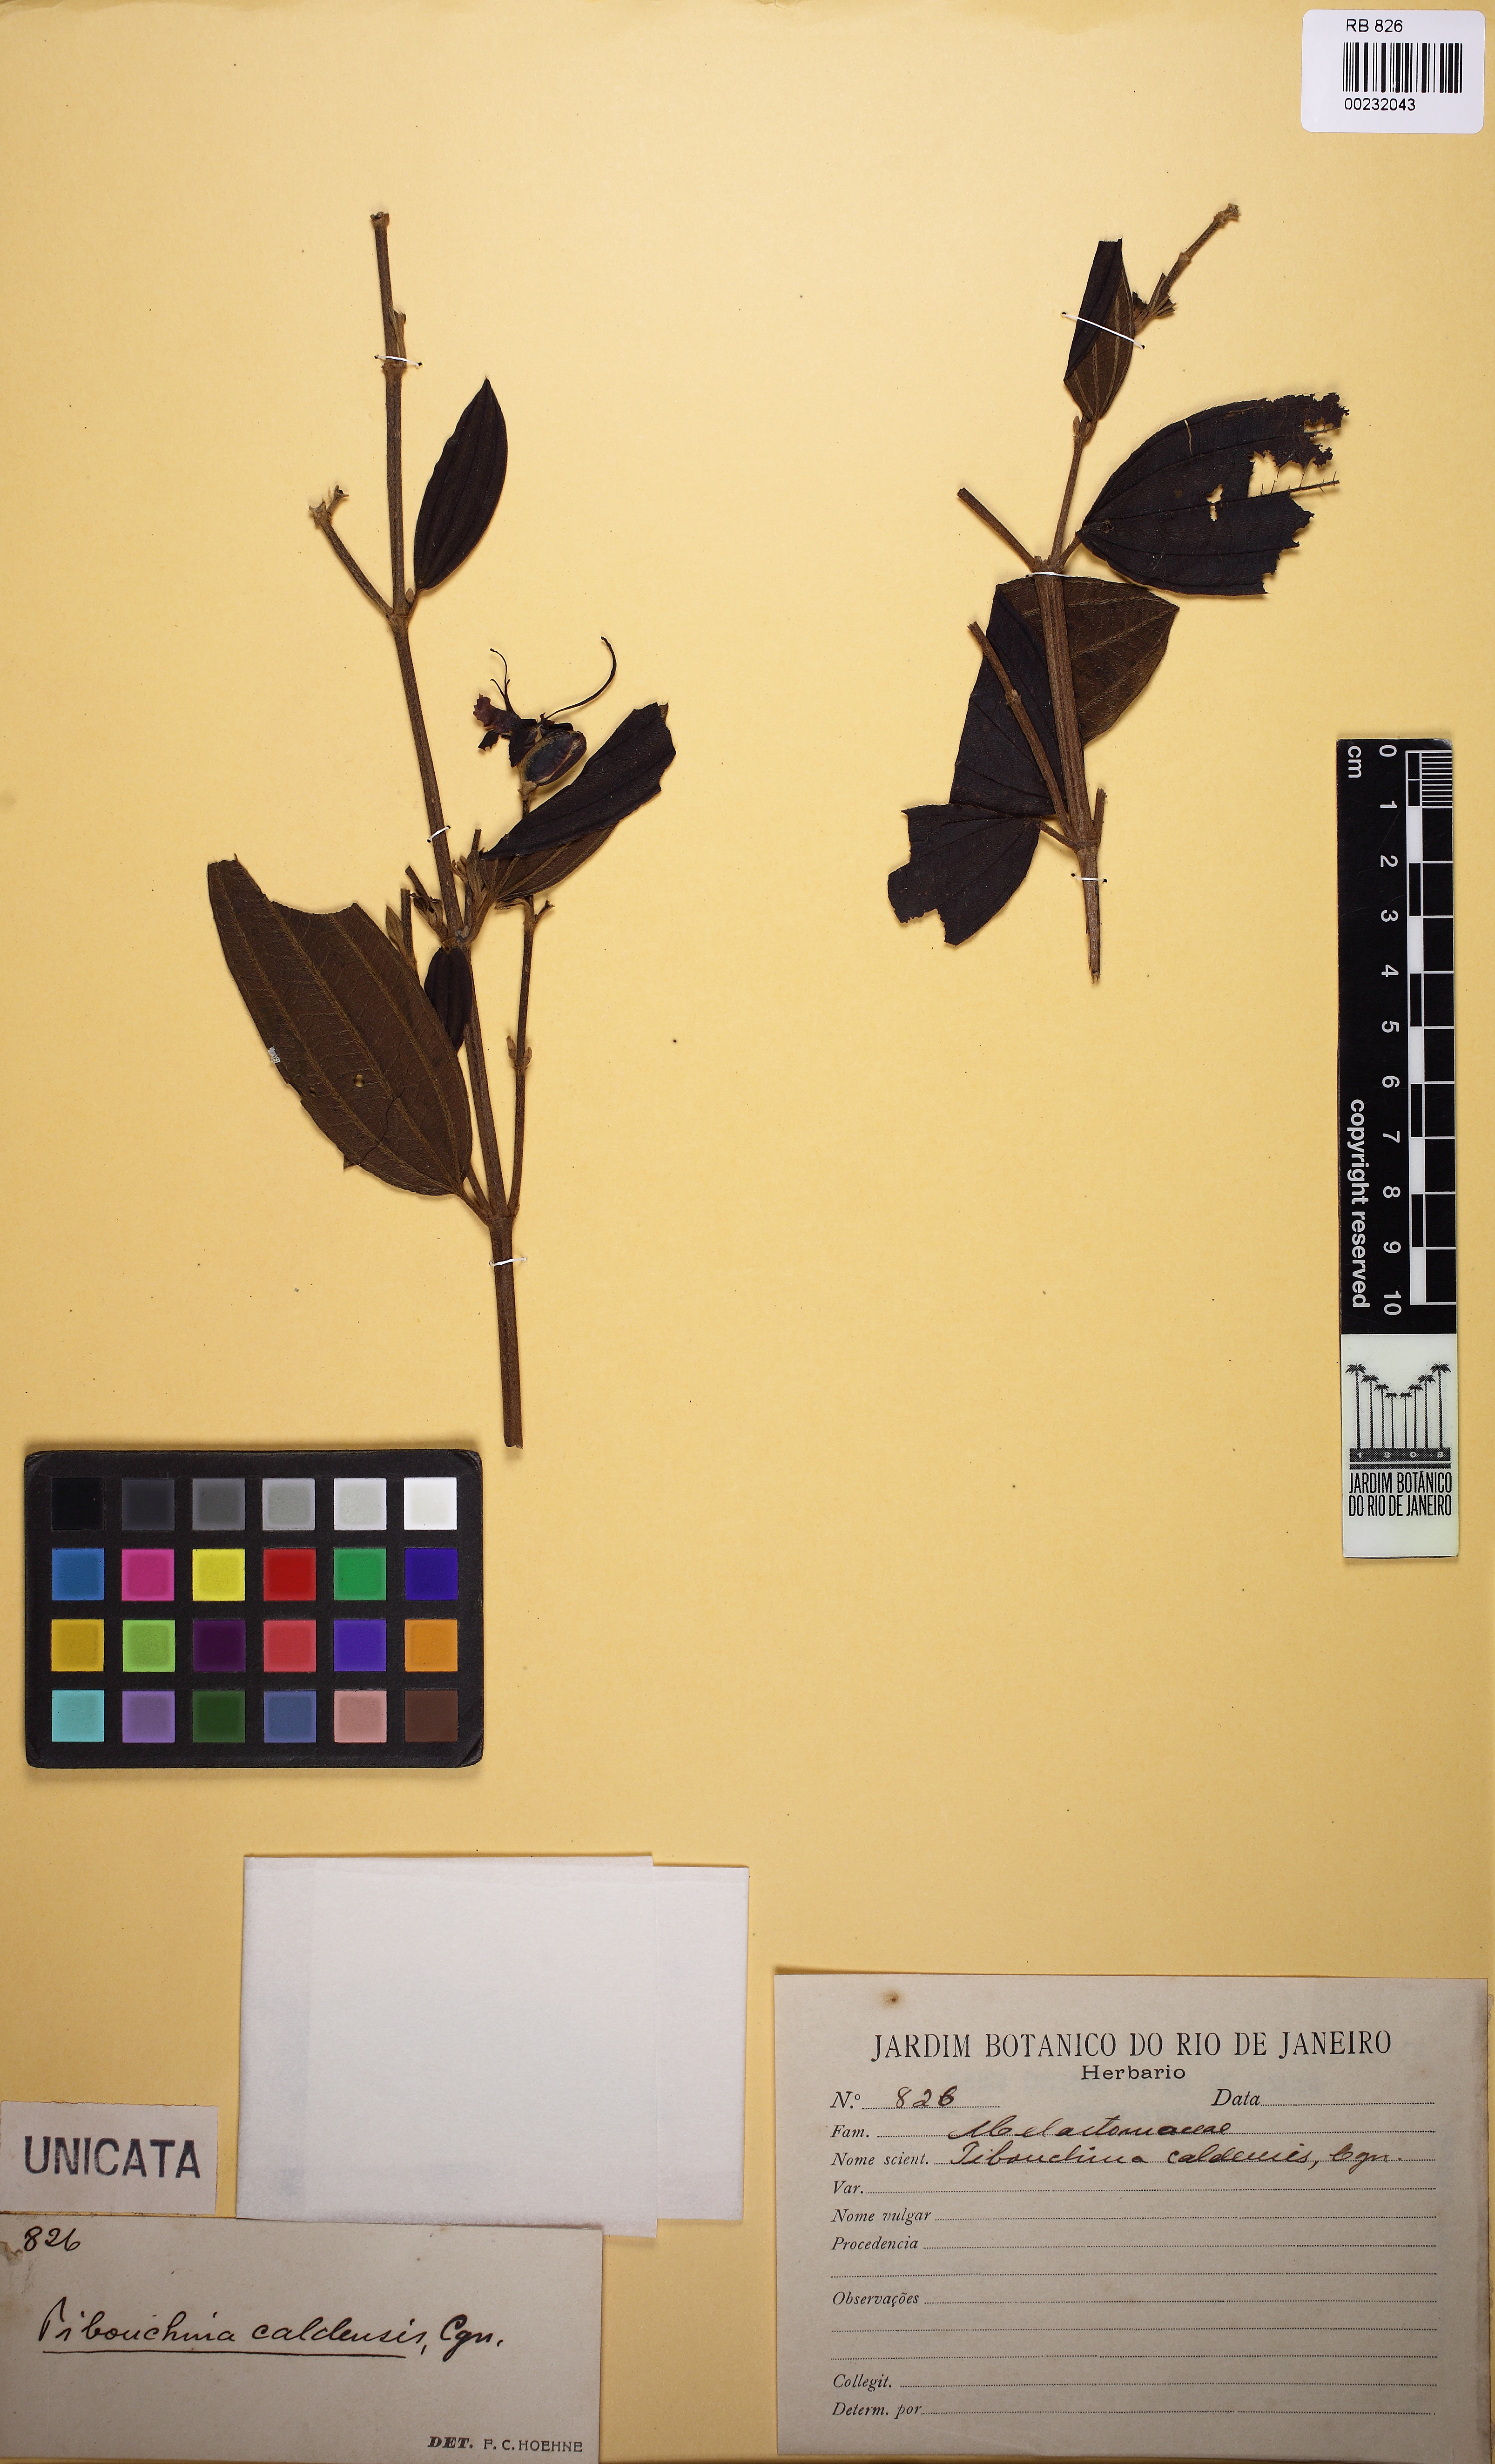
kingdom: Plantae
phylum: Tracheophyta
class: Magnoliopsida
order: Myrtales
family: Melastomataceae
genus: Pleroma
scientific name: Pleroma stenocarpum
